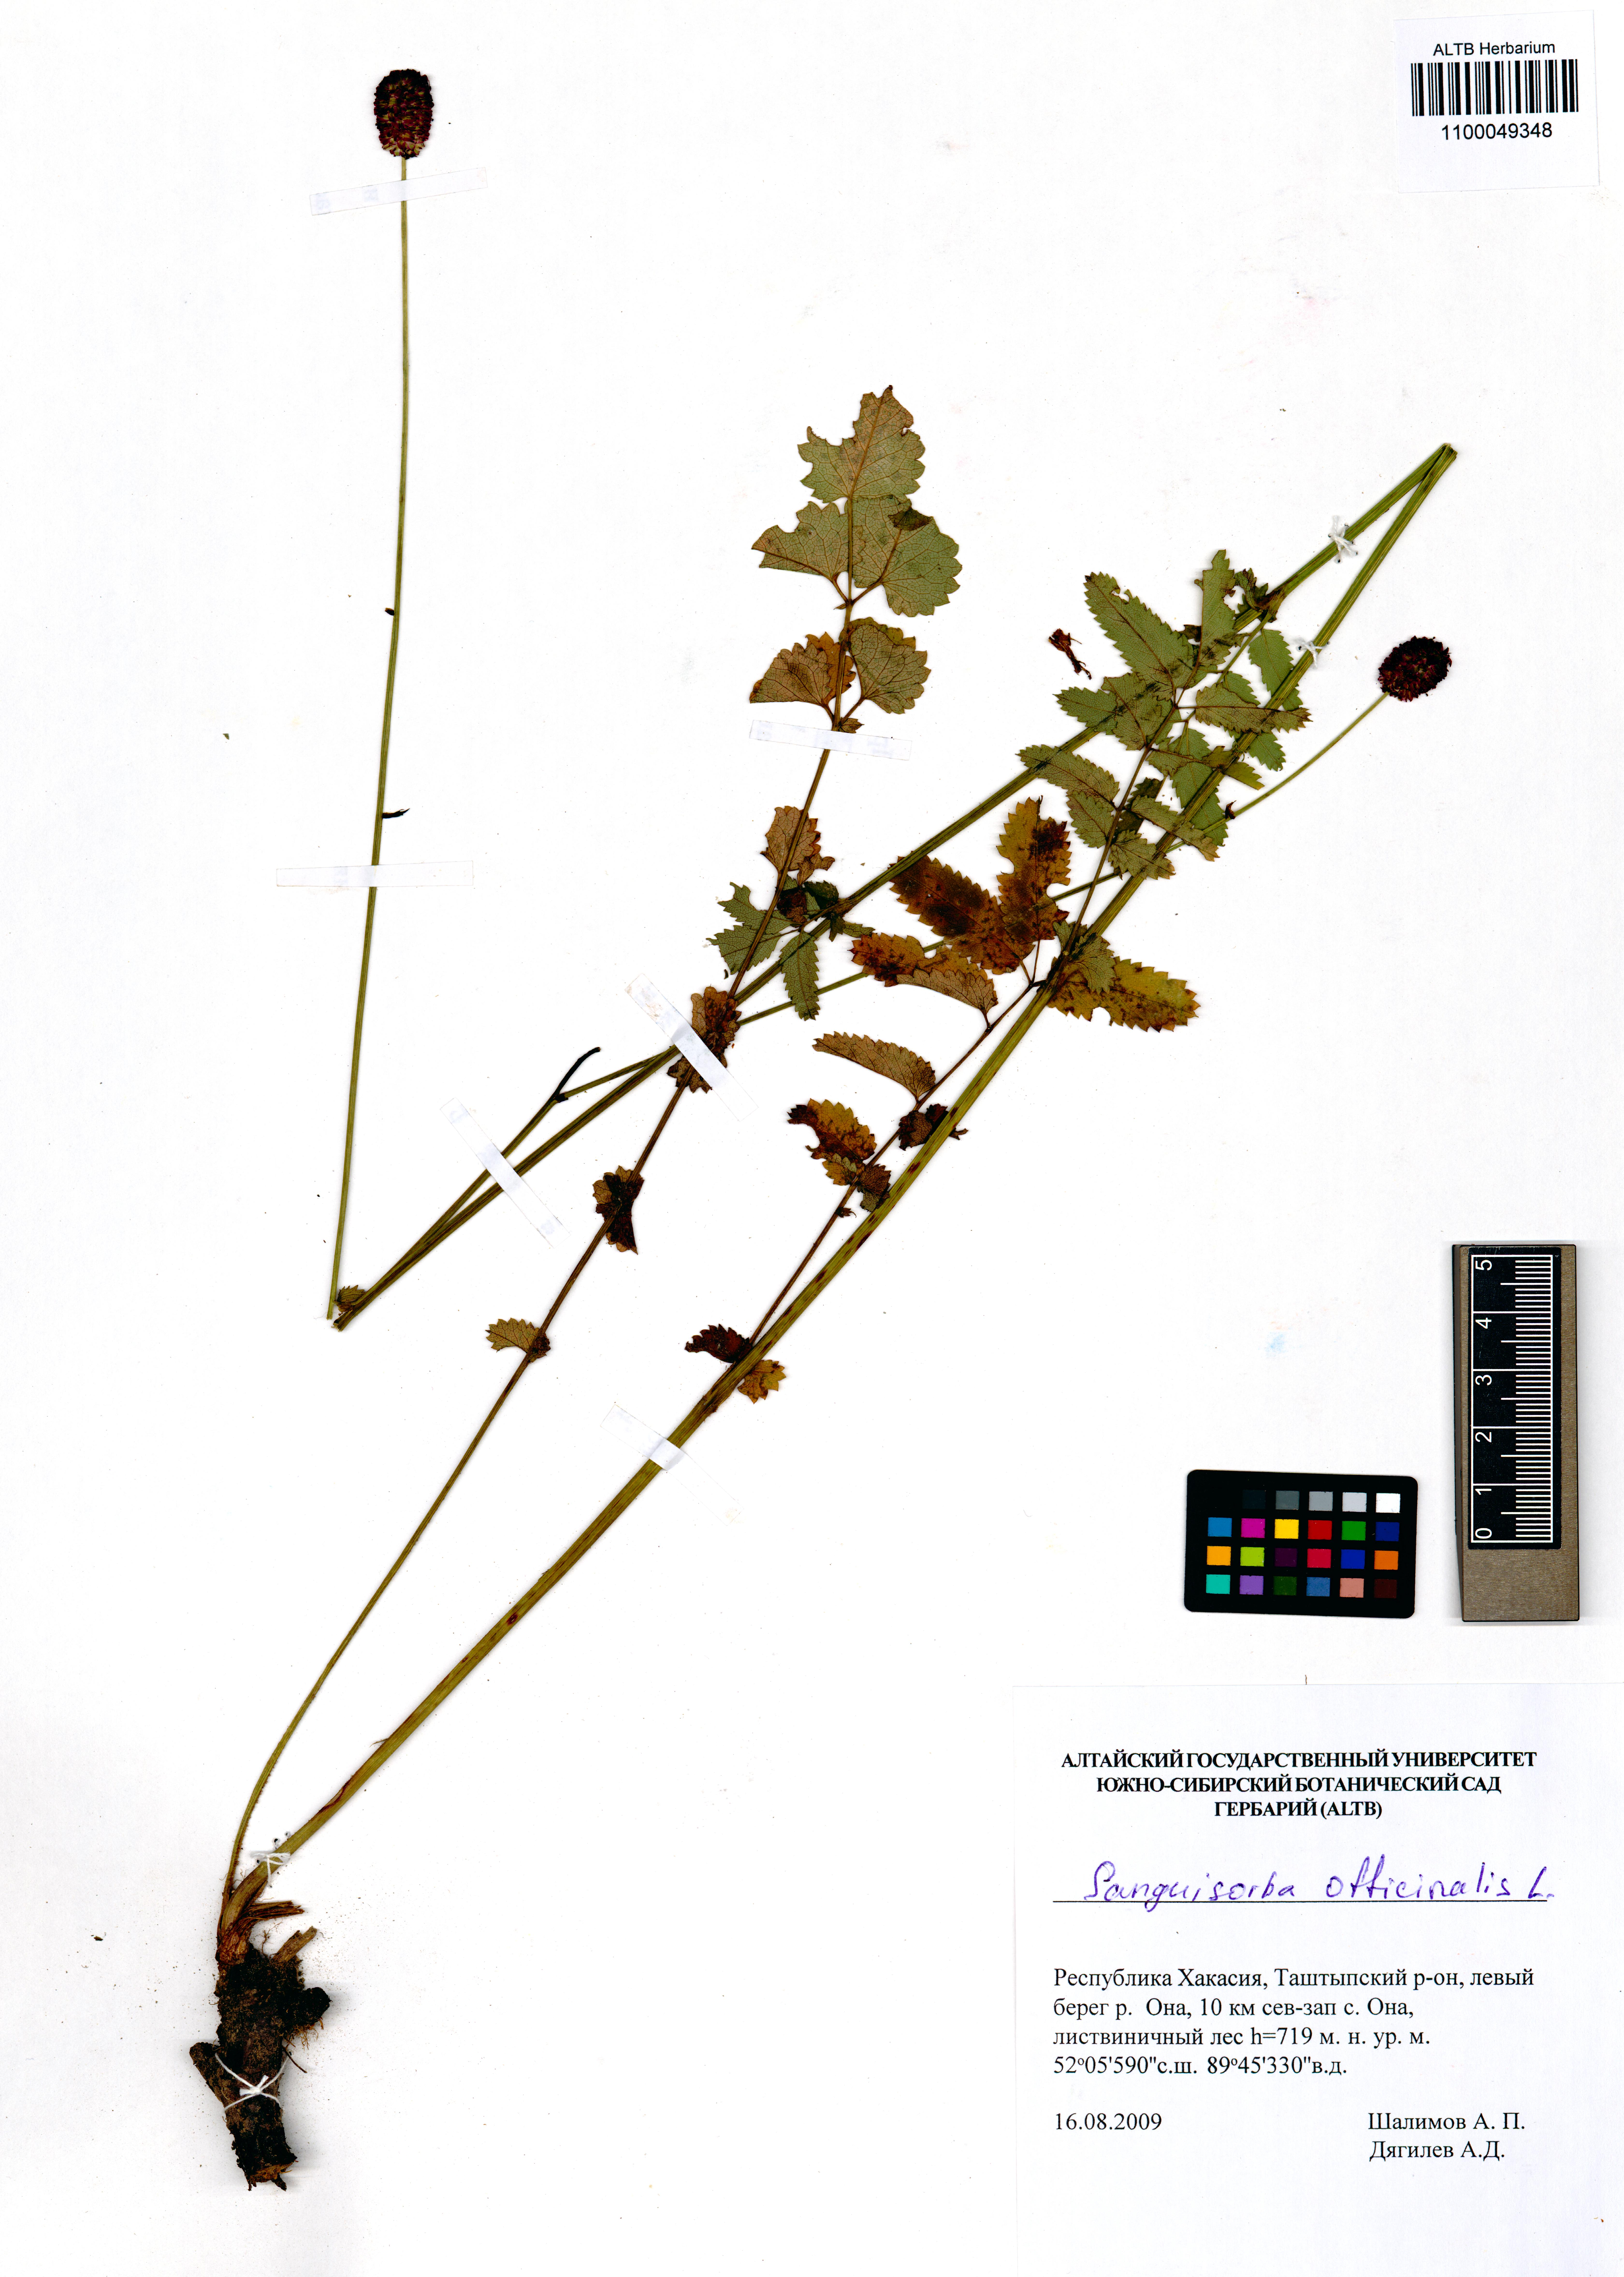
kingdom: Plantae
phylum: Tracheophyta
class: Magnoliopsida
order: Rosales
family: Rosaceae
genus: Sanguisorba
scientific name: Sanguisorba officinalis
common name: Great burnet
